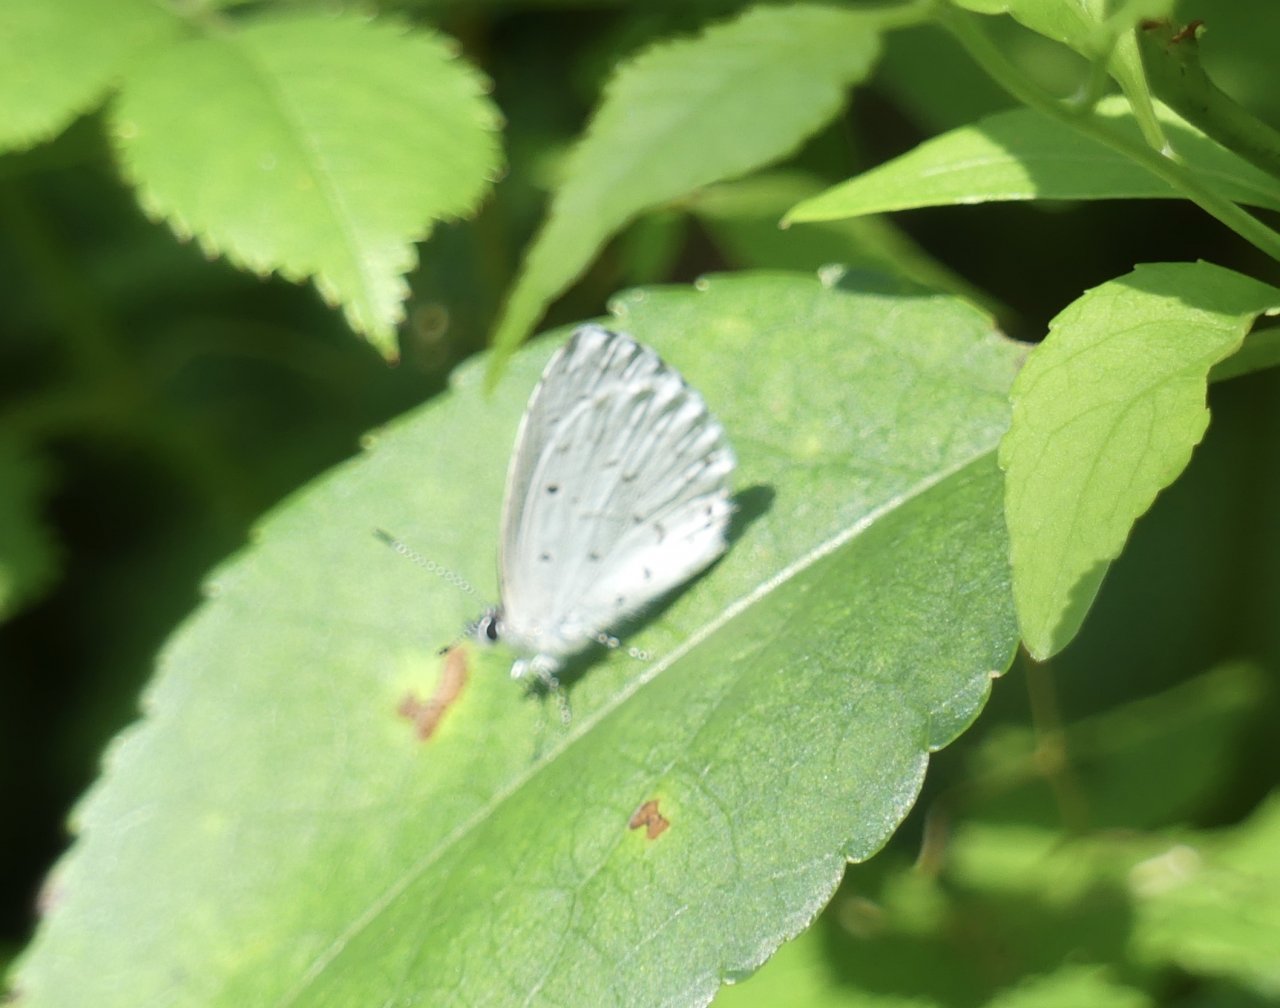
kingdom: Animalia
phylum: Arthropoda
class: Insecta
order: Lepidoptera
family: Lycaenidae
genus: Cyaniris
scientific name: Cyaniris neglecta
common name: Summer Azure
